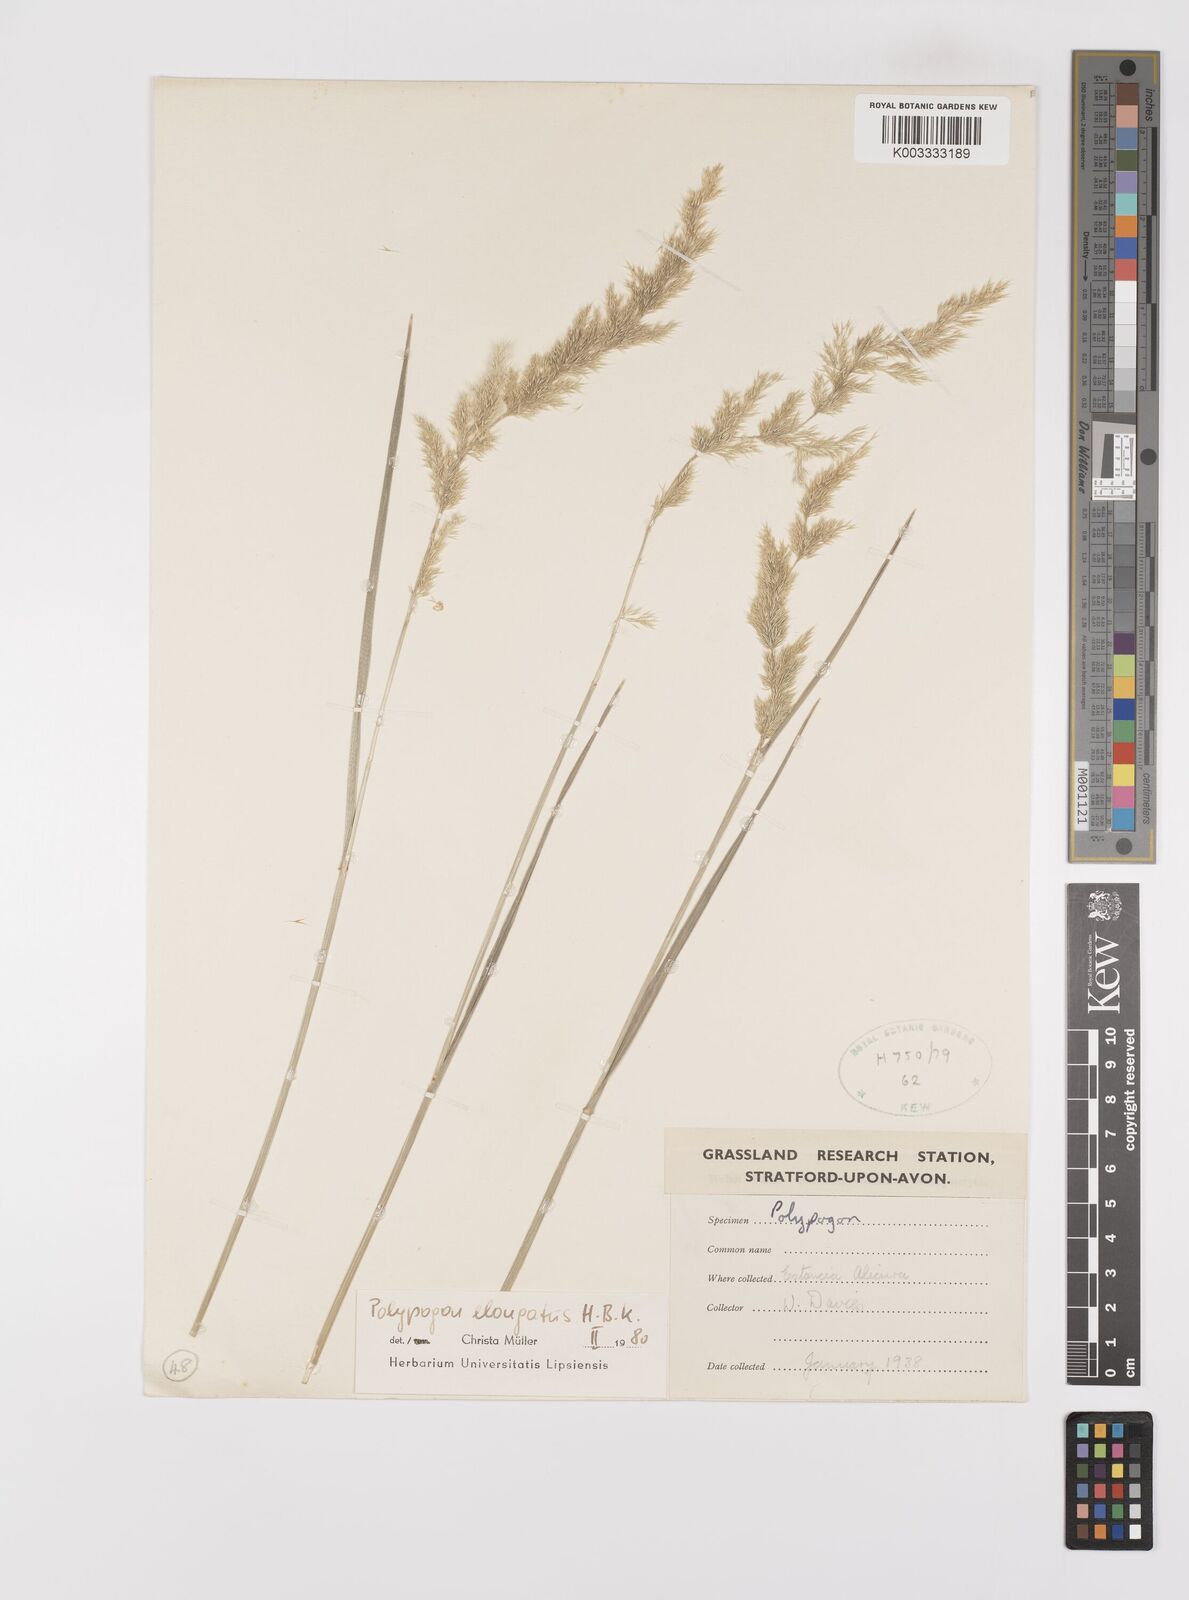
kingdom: Plantae
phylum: Tracheophyta
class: Liliopsida
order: Poales
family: Poaceae
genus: Polypogon
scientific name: Polypogon elongatus
